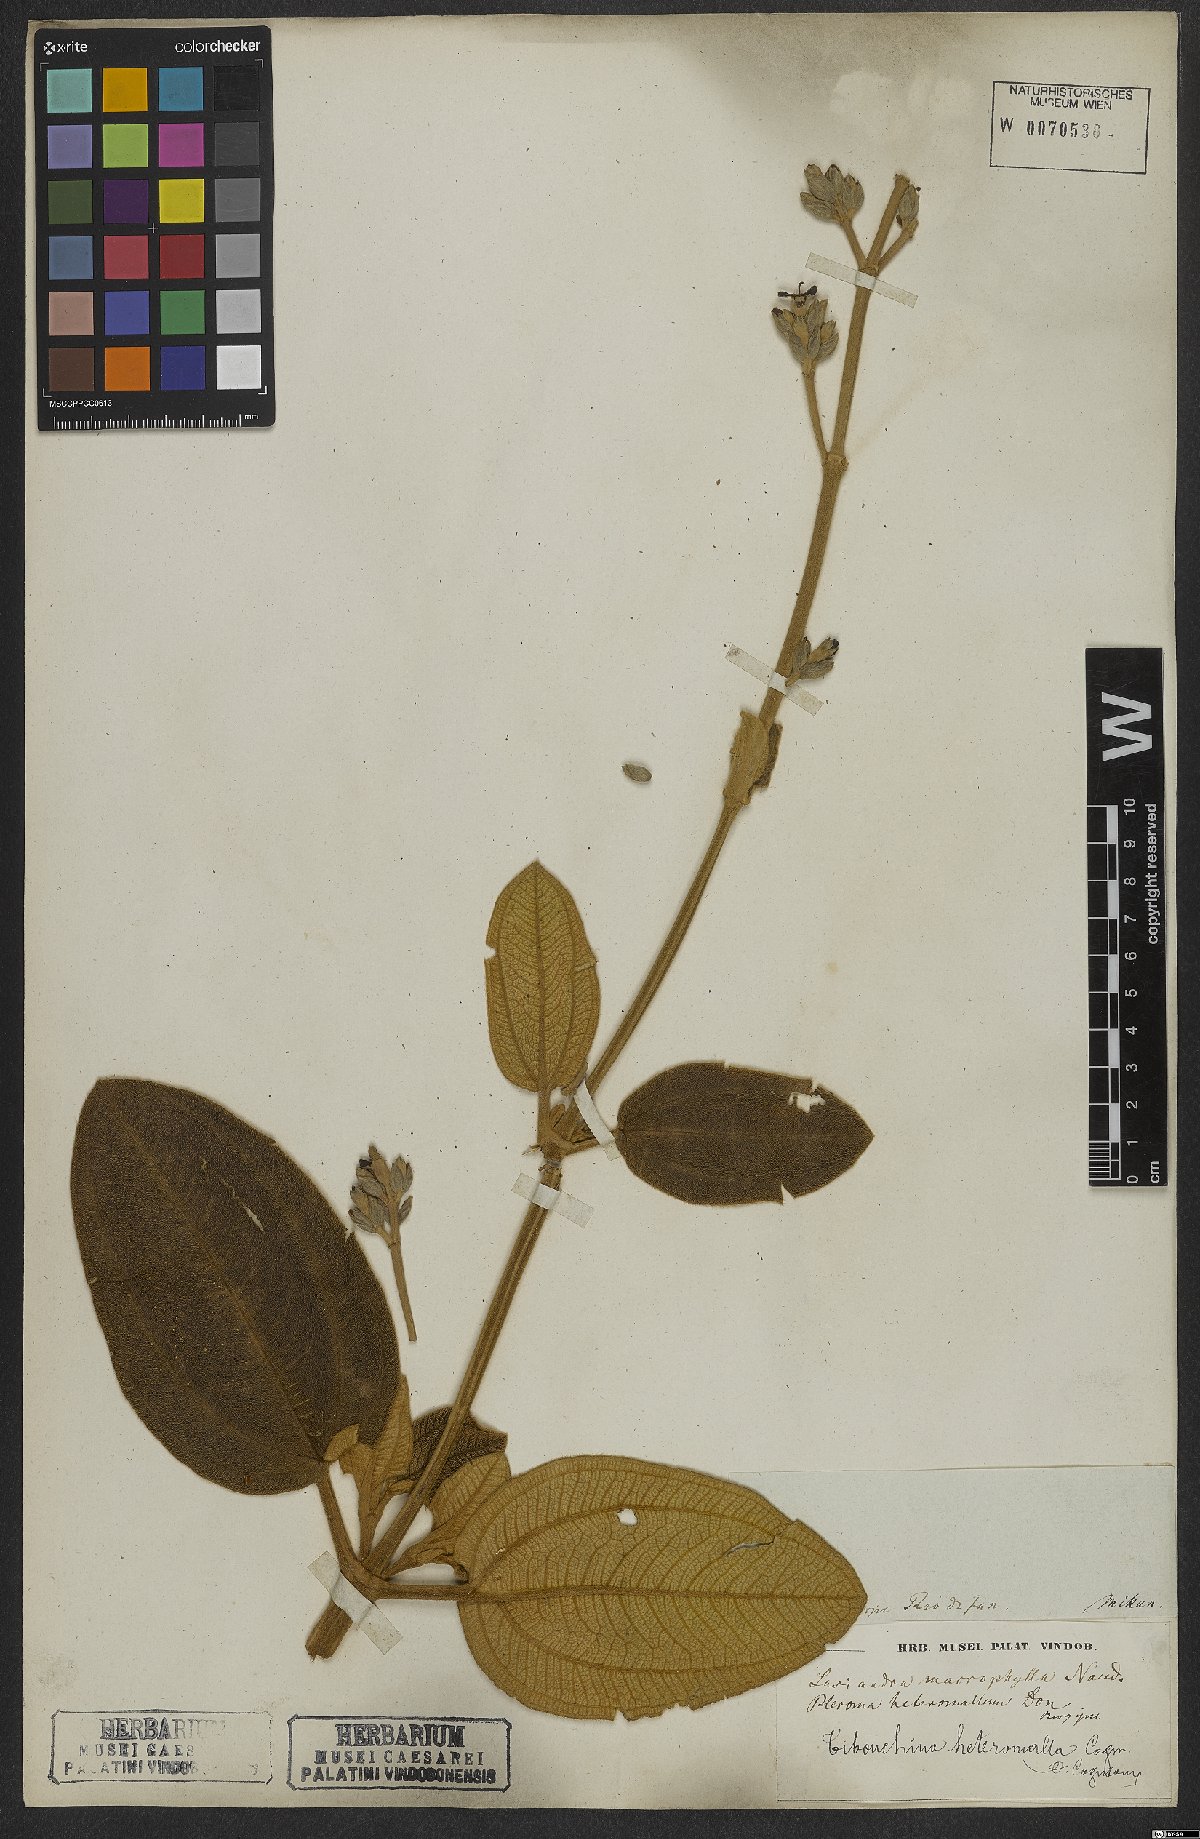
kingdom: Plantae
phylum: Tracheophyta
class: Magnoliopsida
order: Myrtales
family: Melastomataceae
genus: Pleroma
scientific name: Pleroma heteromallum
